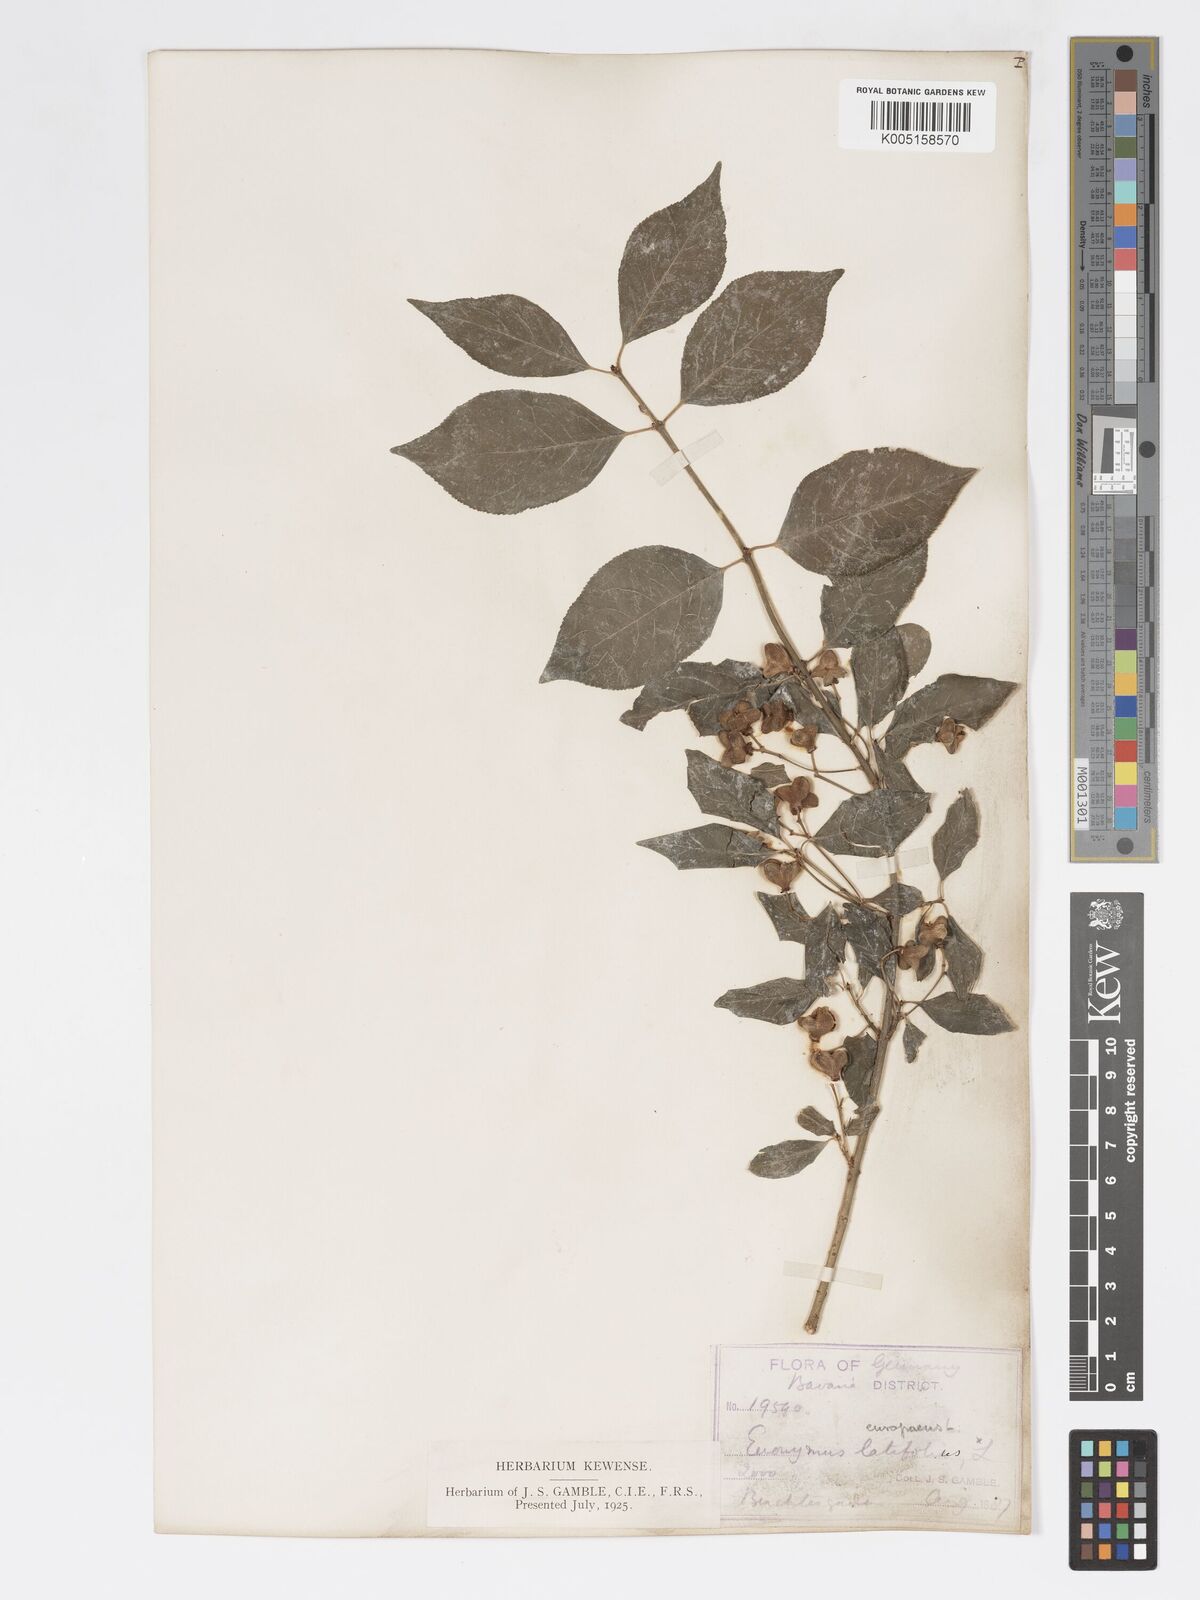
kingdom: Plantae
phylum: Tracheophyta
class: Magnoliopsida
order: Celastrales
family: Celastraceae
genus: Euonymus
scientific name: Euonymus europaeus
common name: Spindle
